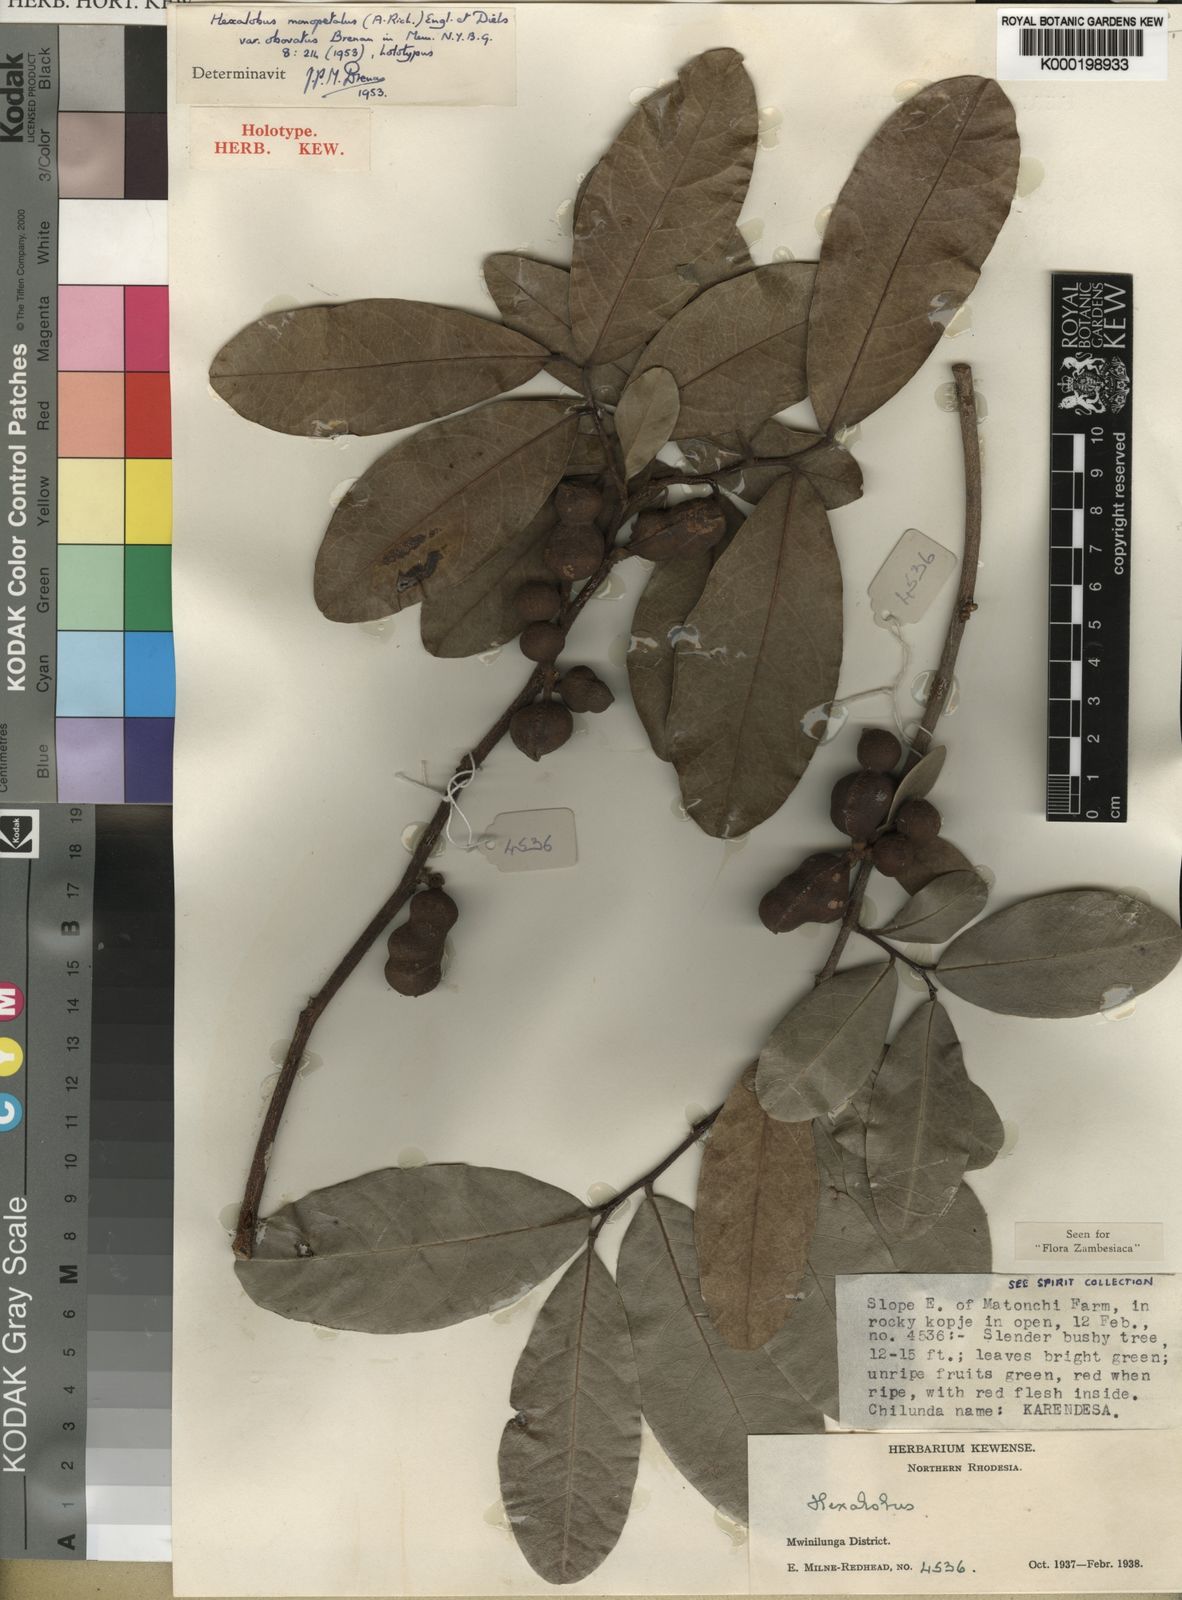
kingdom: Plantae
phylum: Tracheophyta
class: Magnoliopsida
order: Magnoliales
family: Annonaceae
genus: Hexalobus
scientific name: Hexalobus monopetalus
